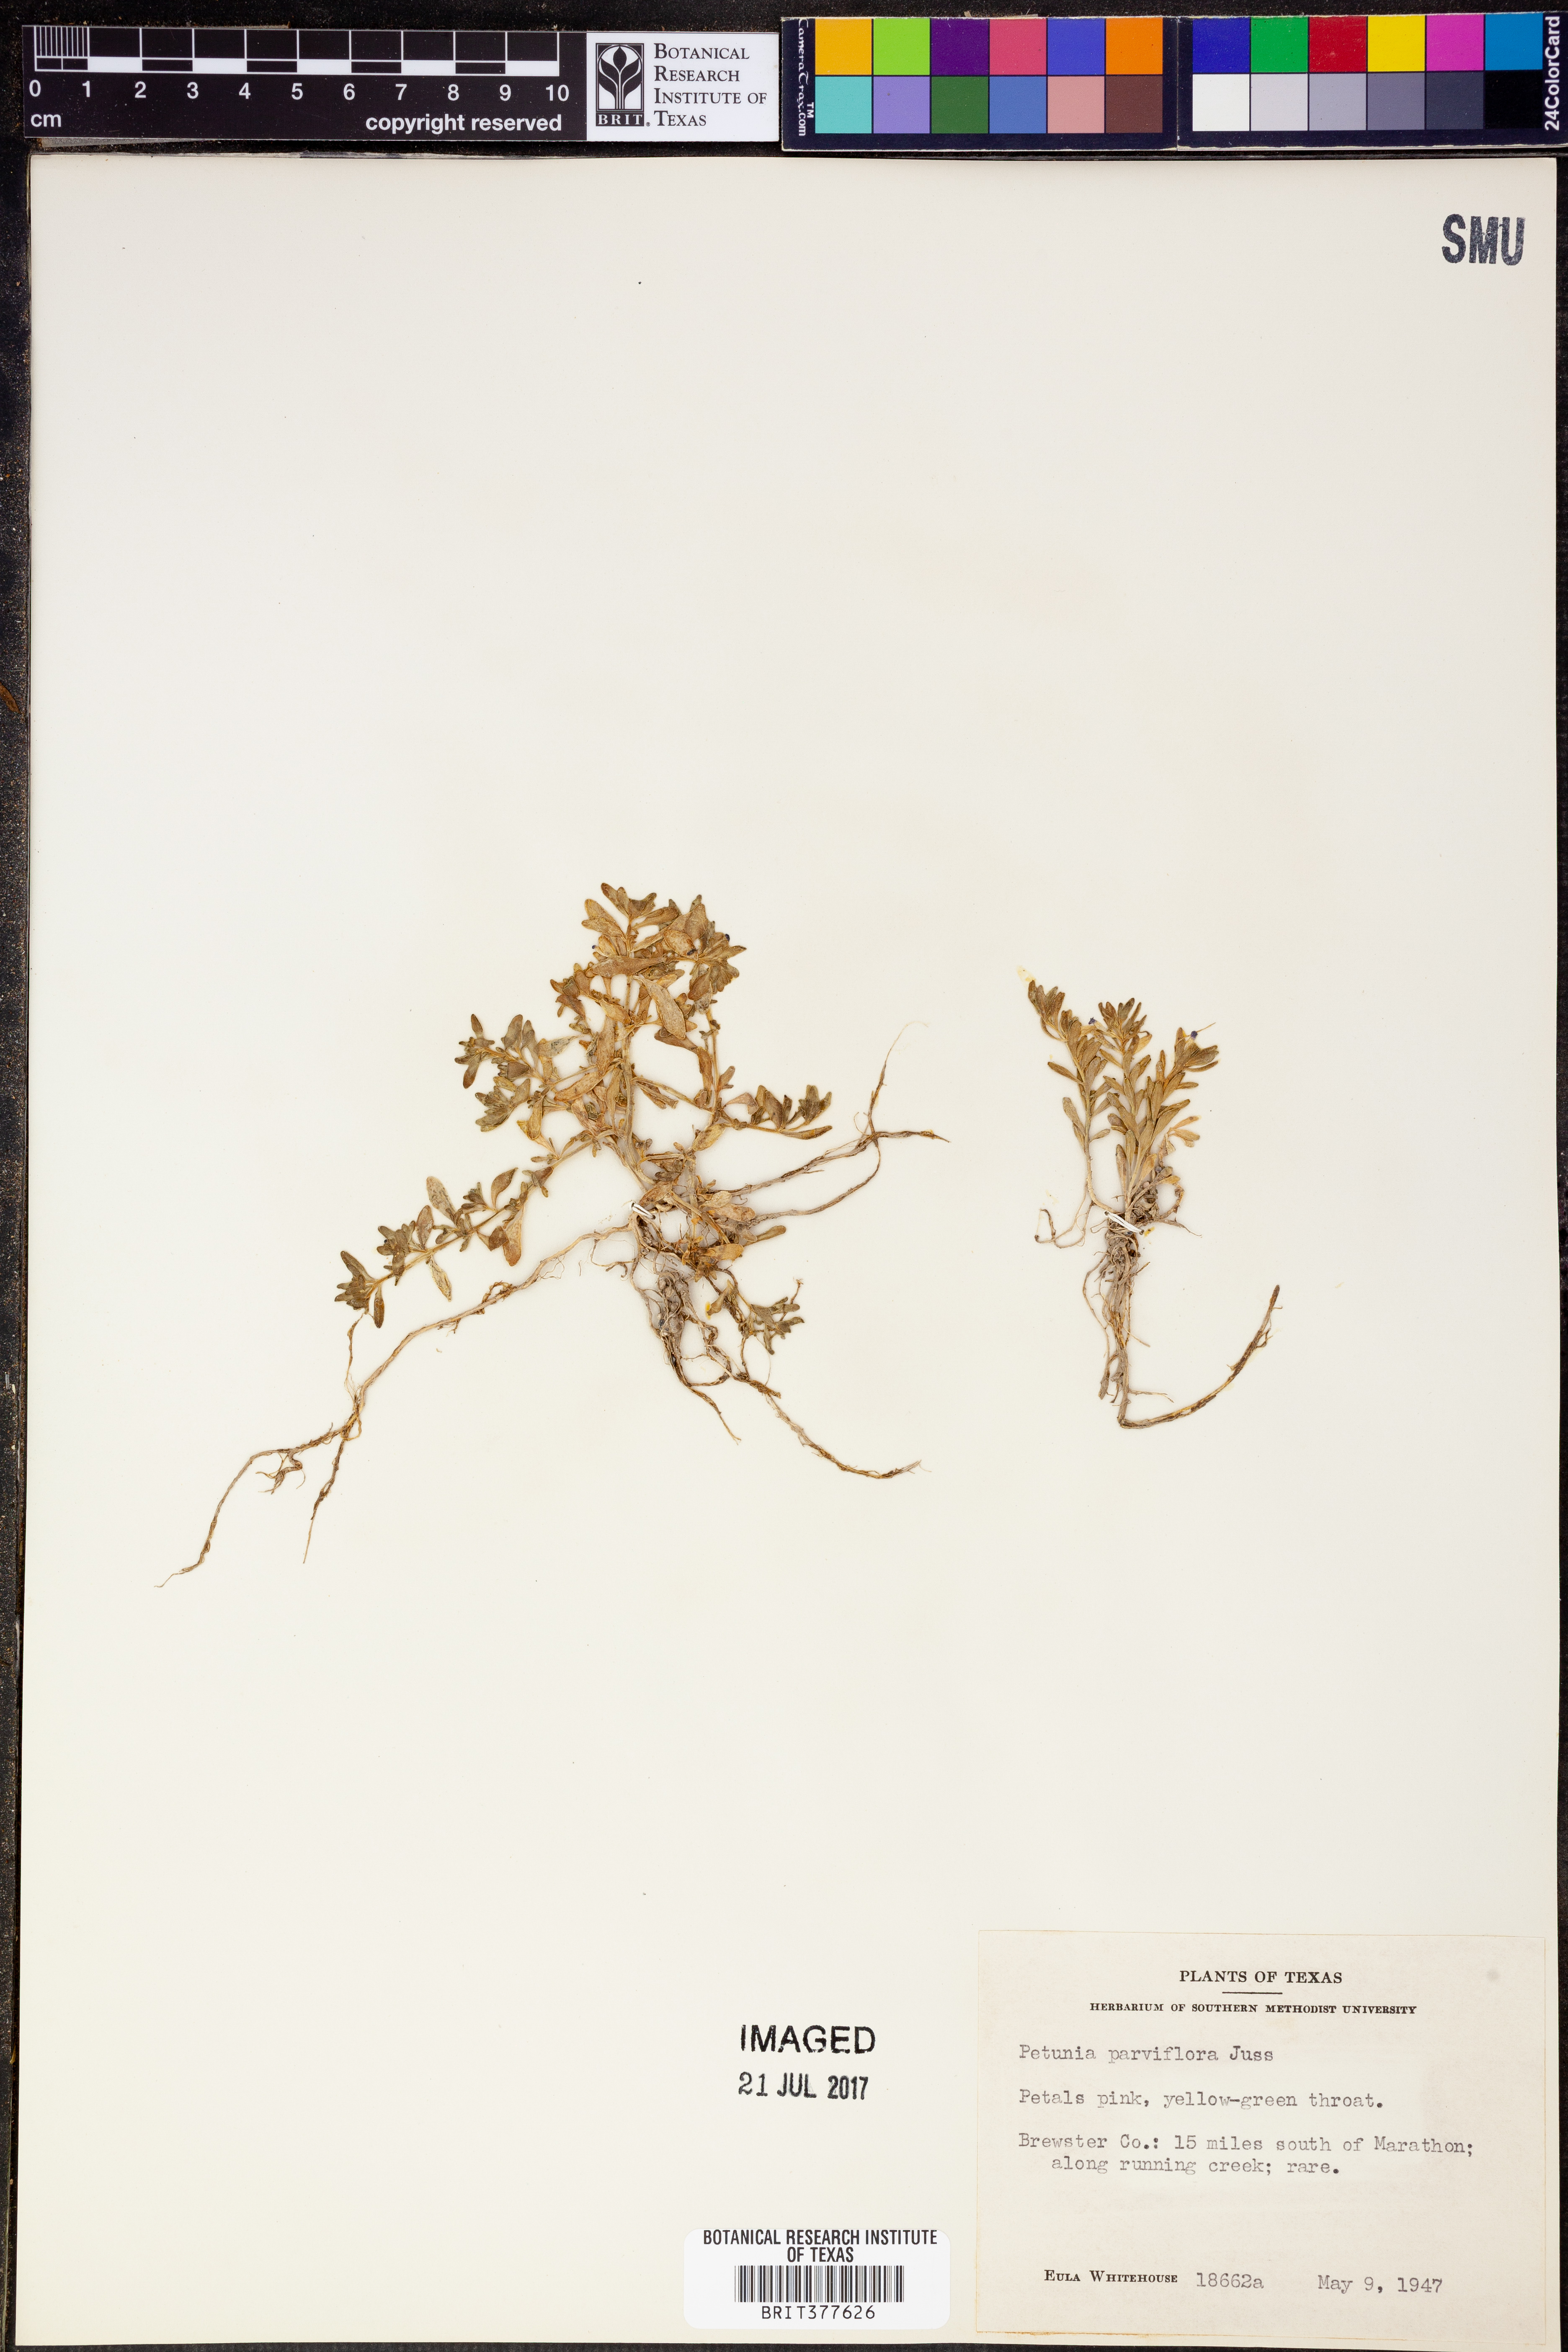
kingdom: Plantae
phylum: Tracheophyta
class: Magnoliopsida
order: Solanales
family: Solanaceae
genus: Calibrachoa
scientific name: Calibrachoa parviflora
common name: Seaside petunia
